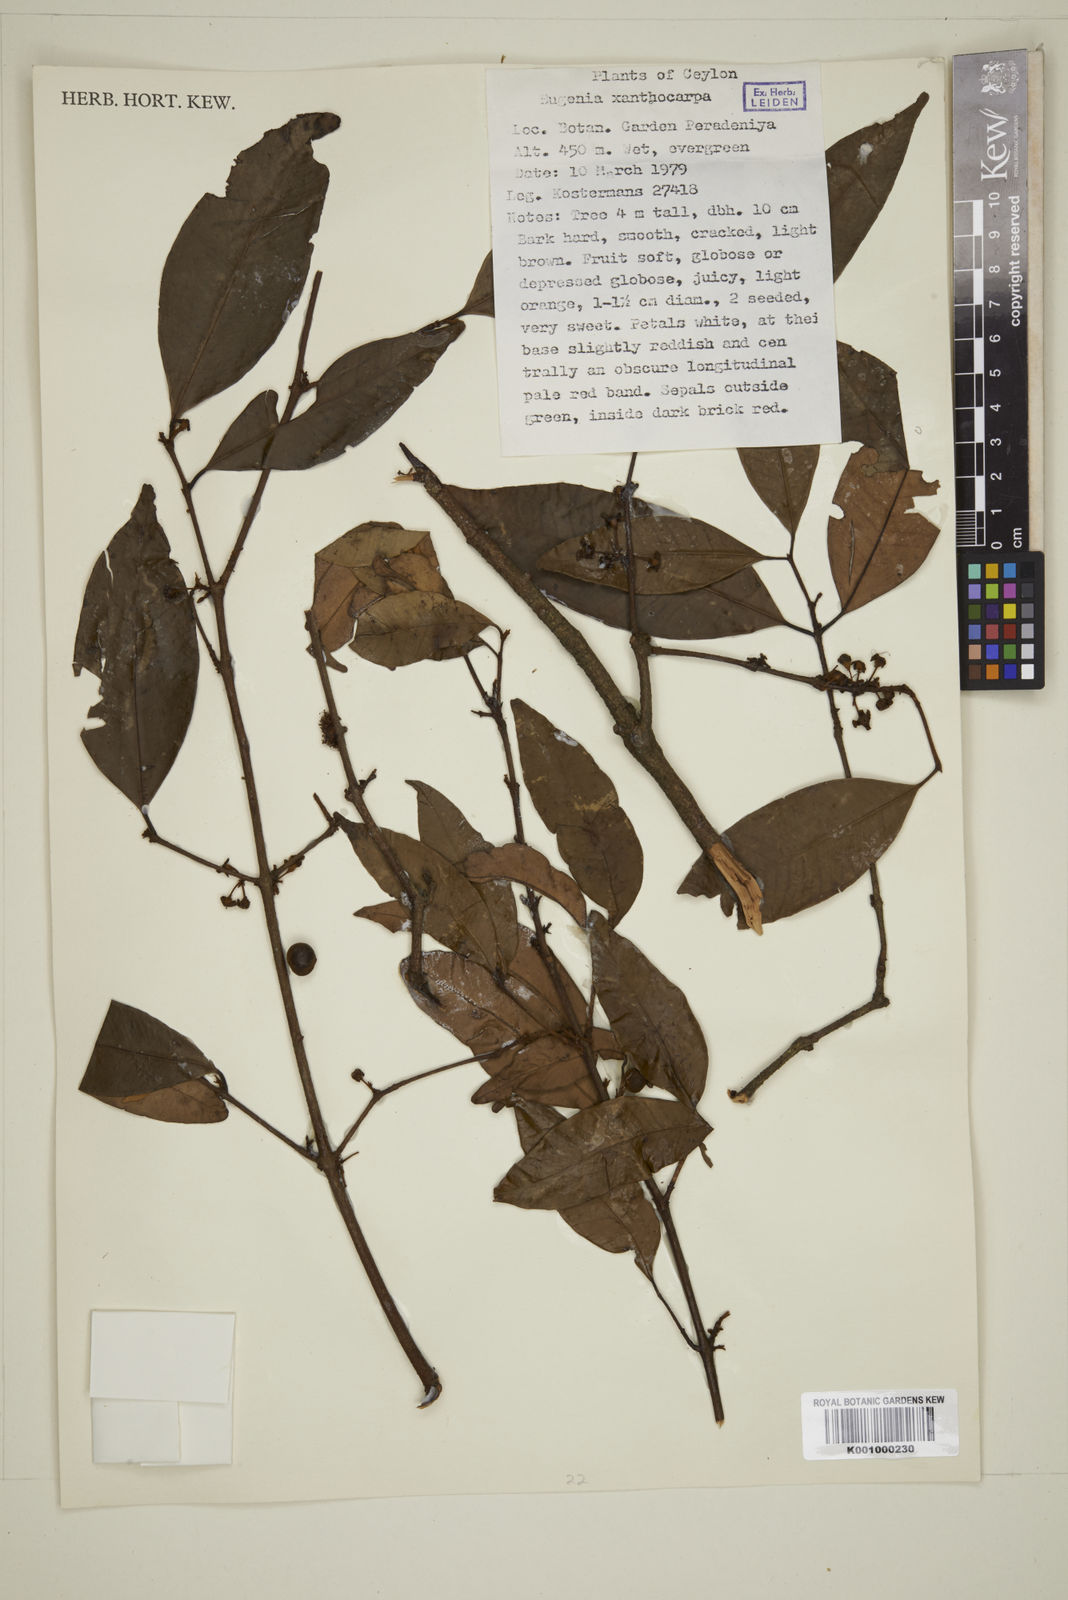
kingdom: Plantae
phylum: Tracheophyta
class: Magnoliopsida
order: Myrtales
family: Myrtaceae
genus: Campomanesia
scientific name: Campomanesia xanthocarpa
